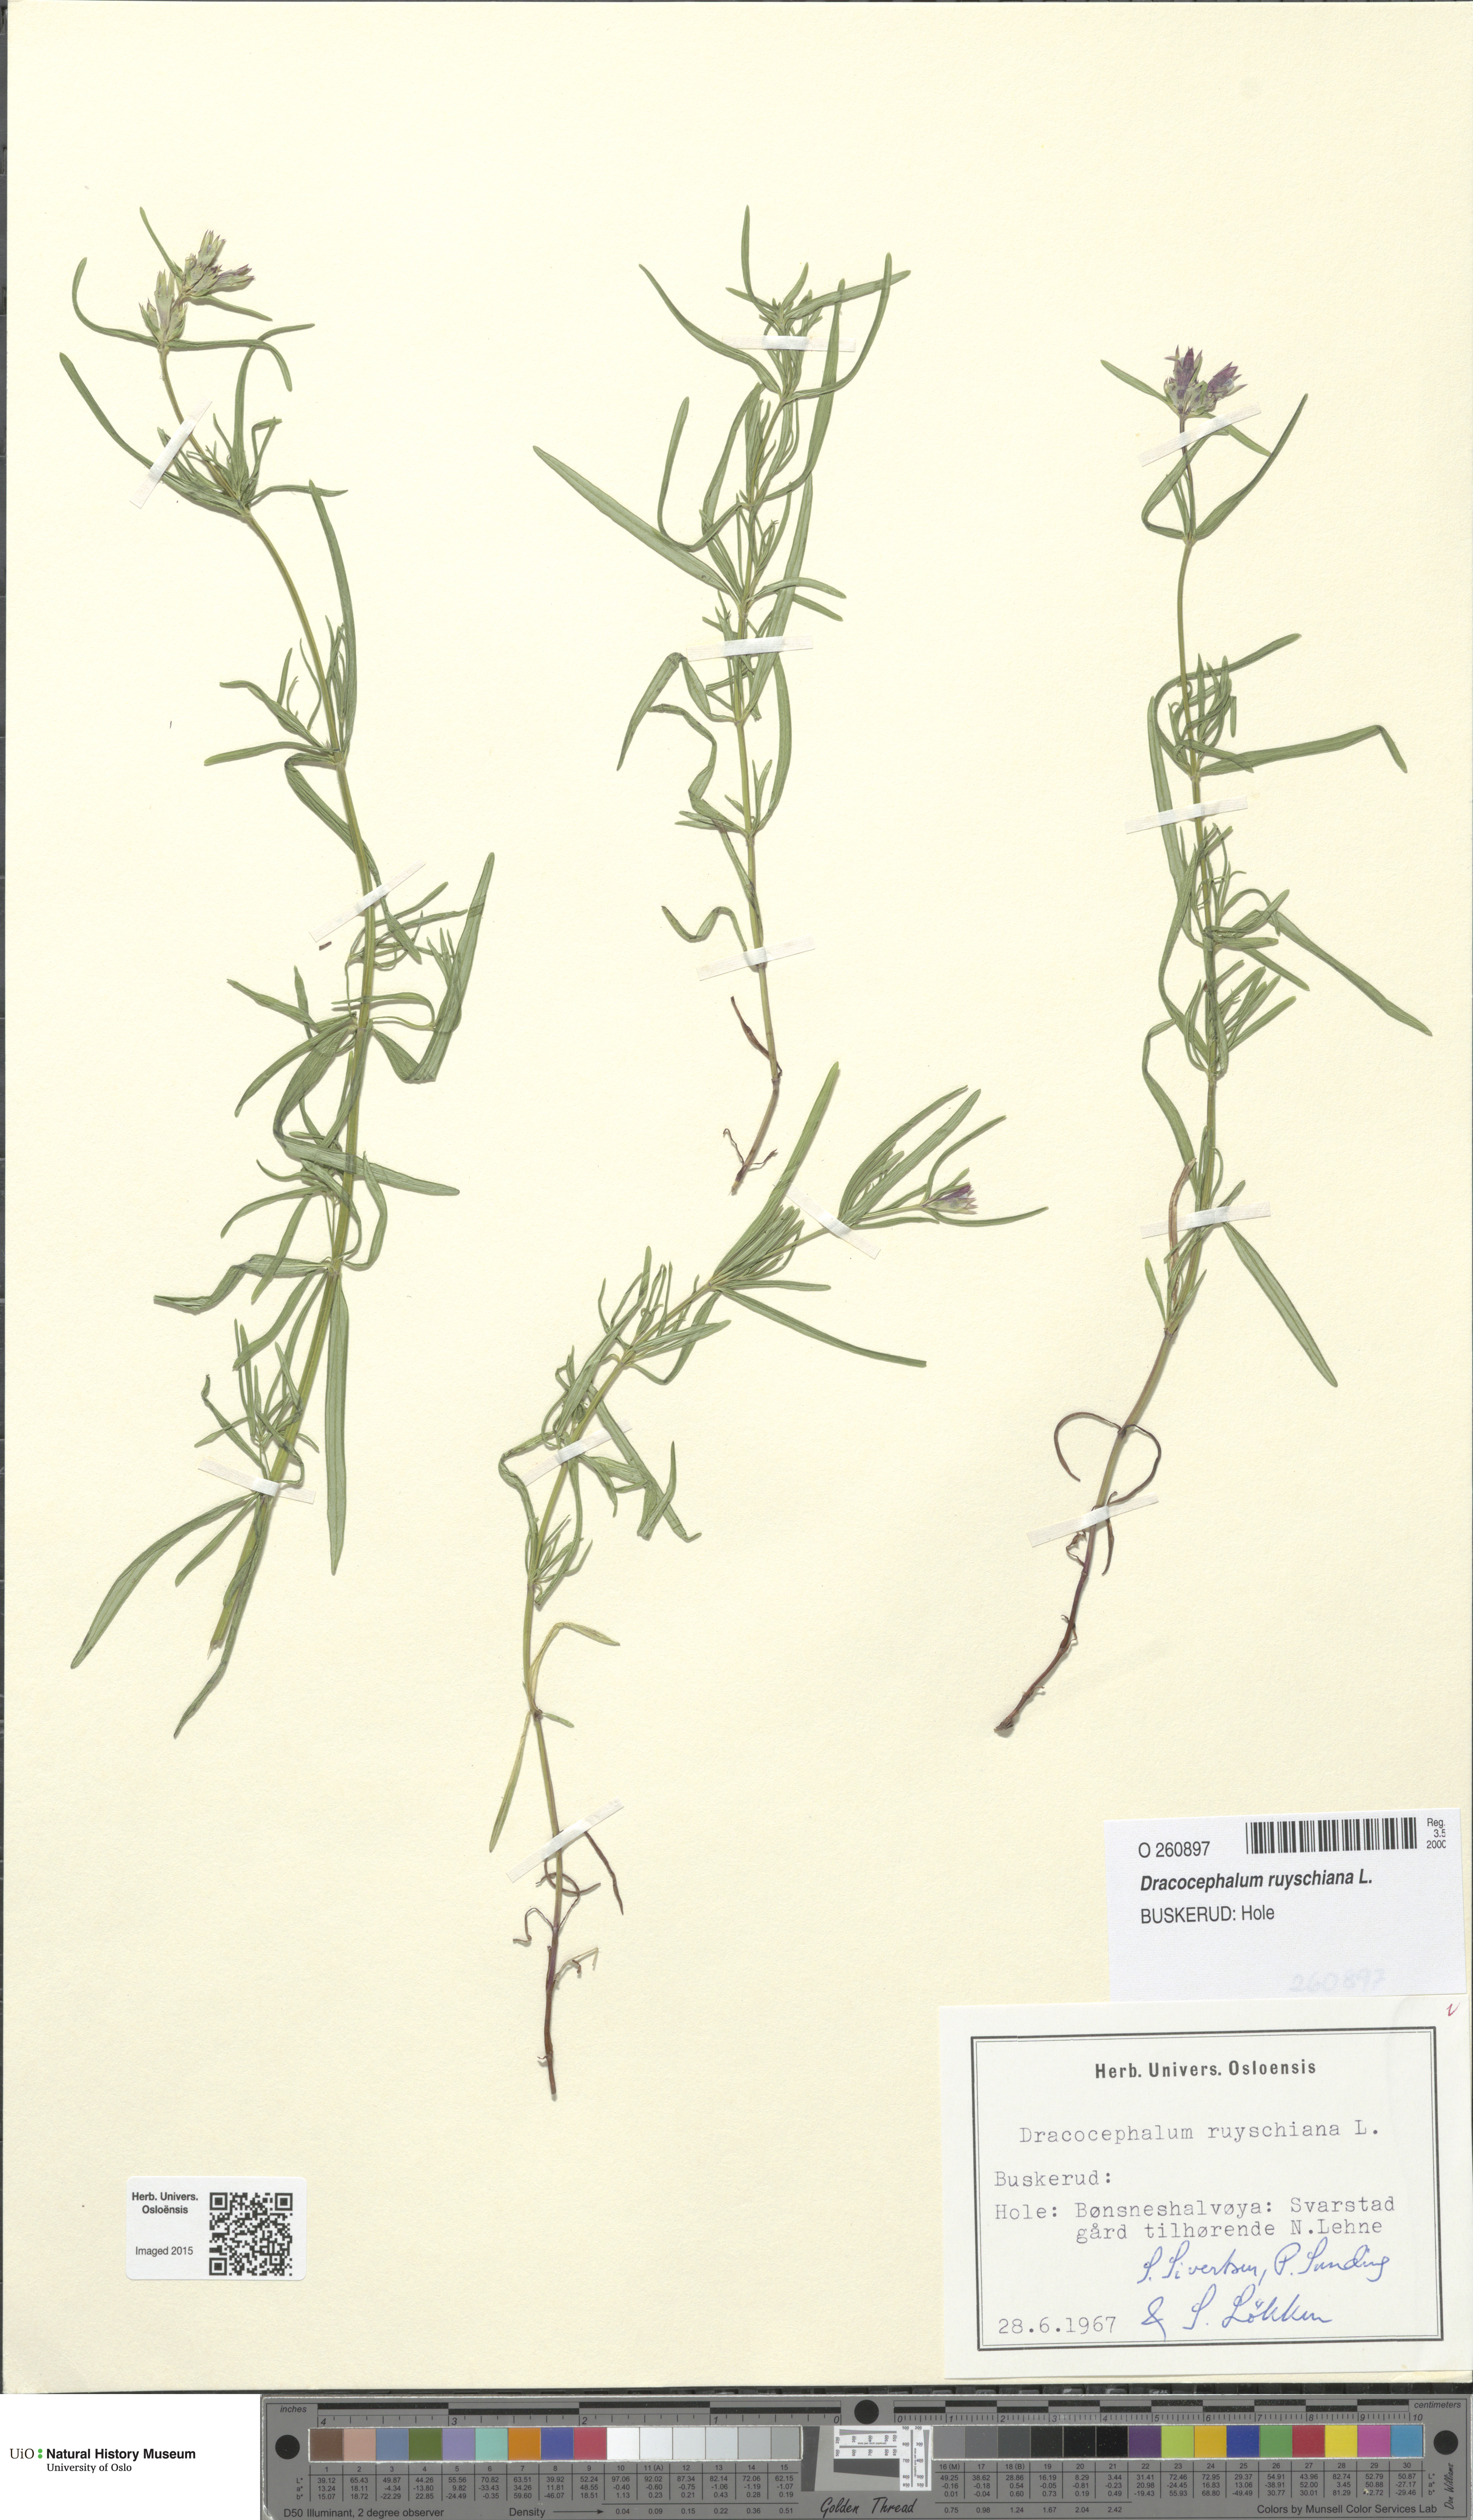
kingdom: Plantae
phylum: Tracheophyta
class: Magnoliopsida
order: Lamiales
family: Lamiaceae
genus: Dracocephalum
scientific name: Dracocephalum ruyschiana
